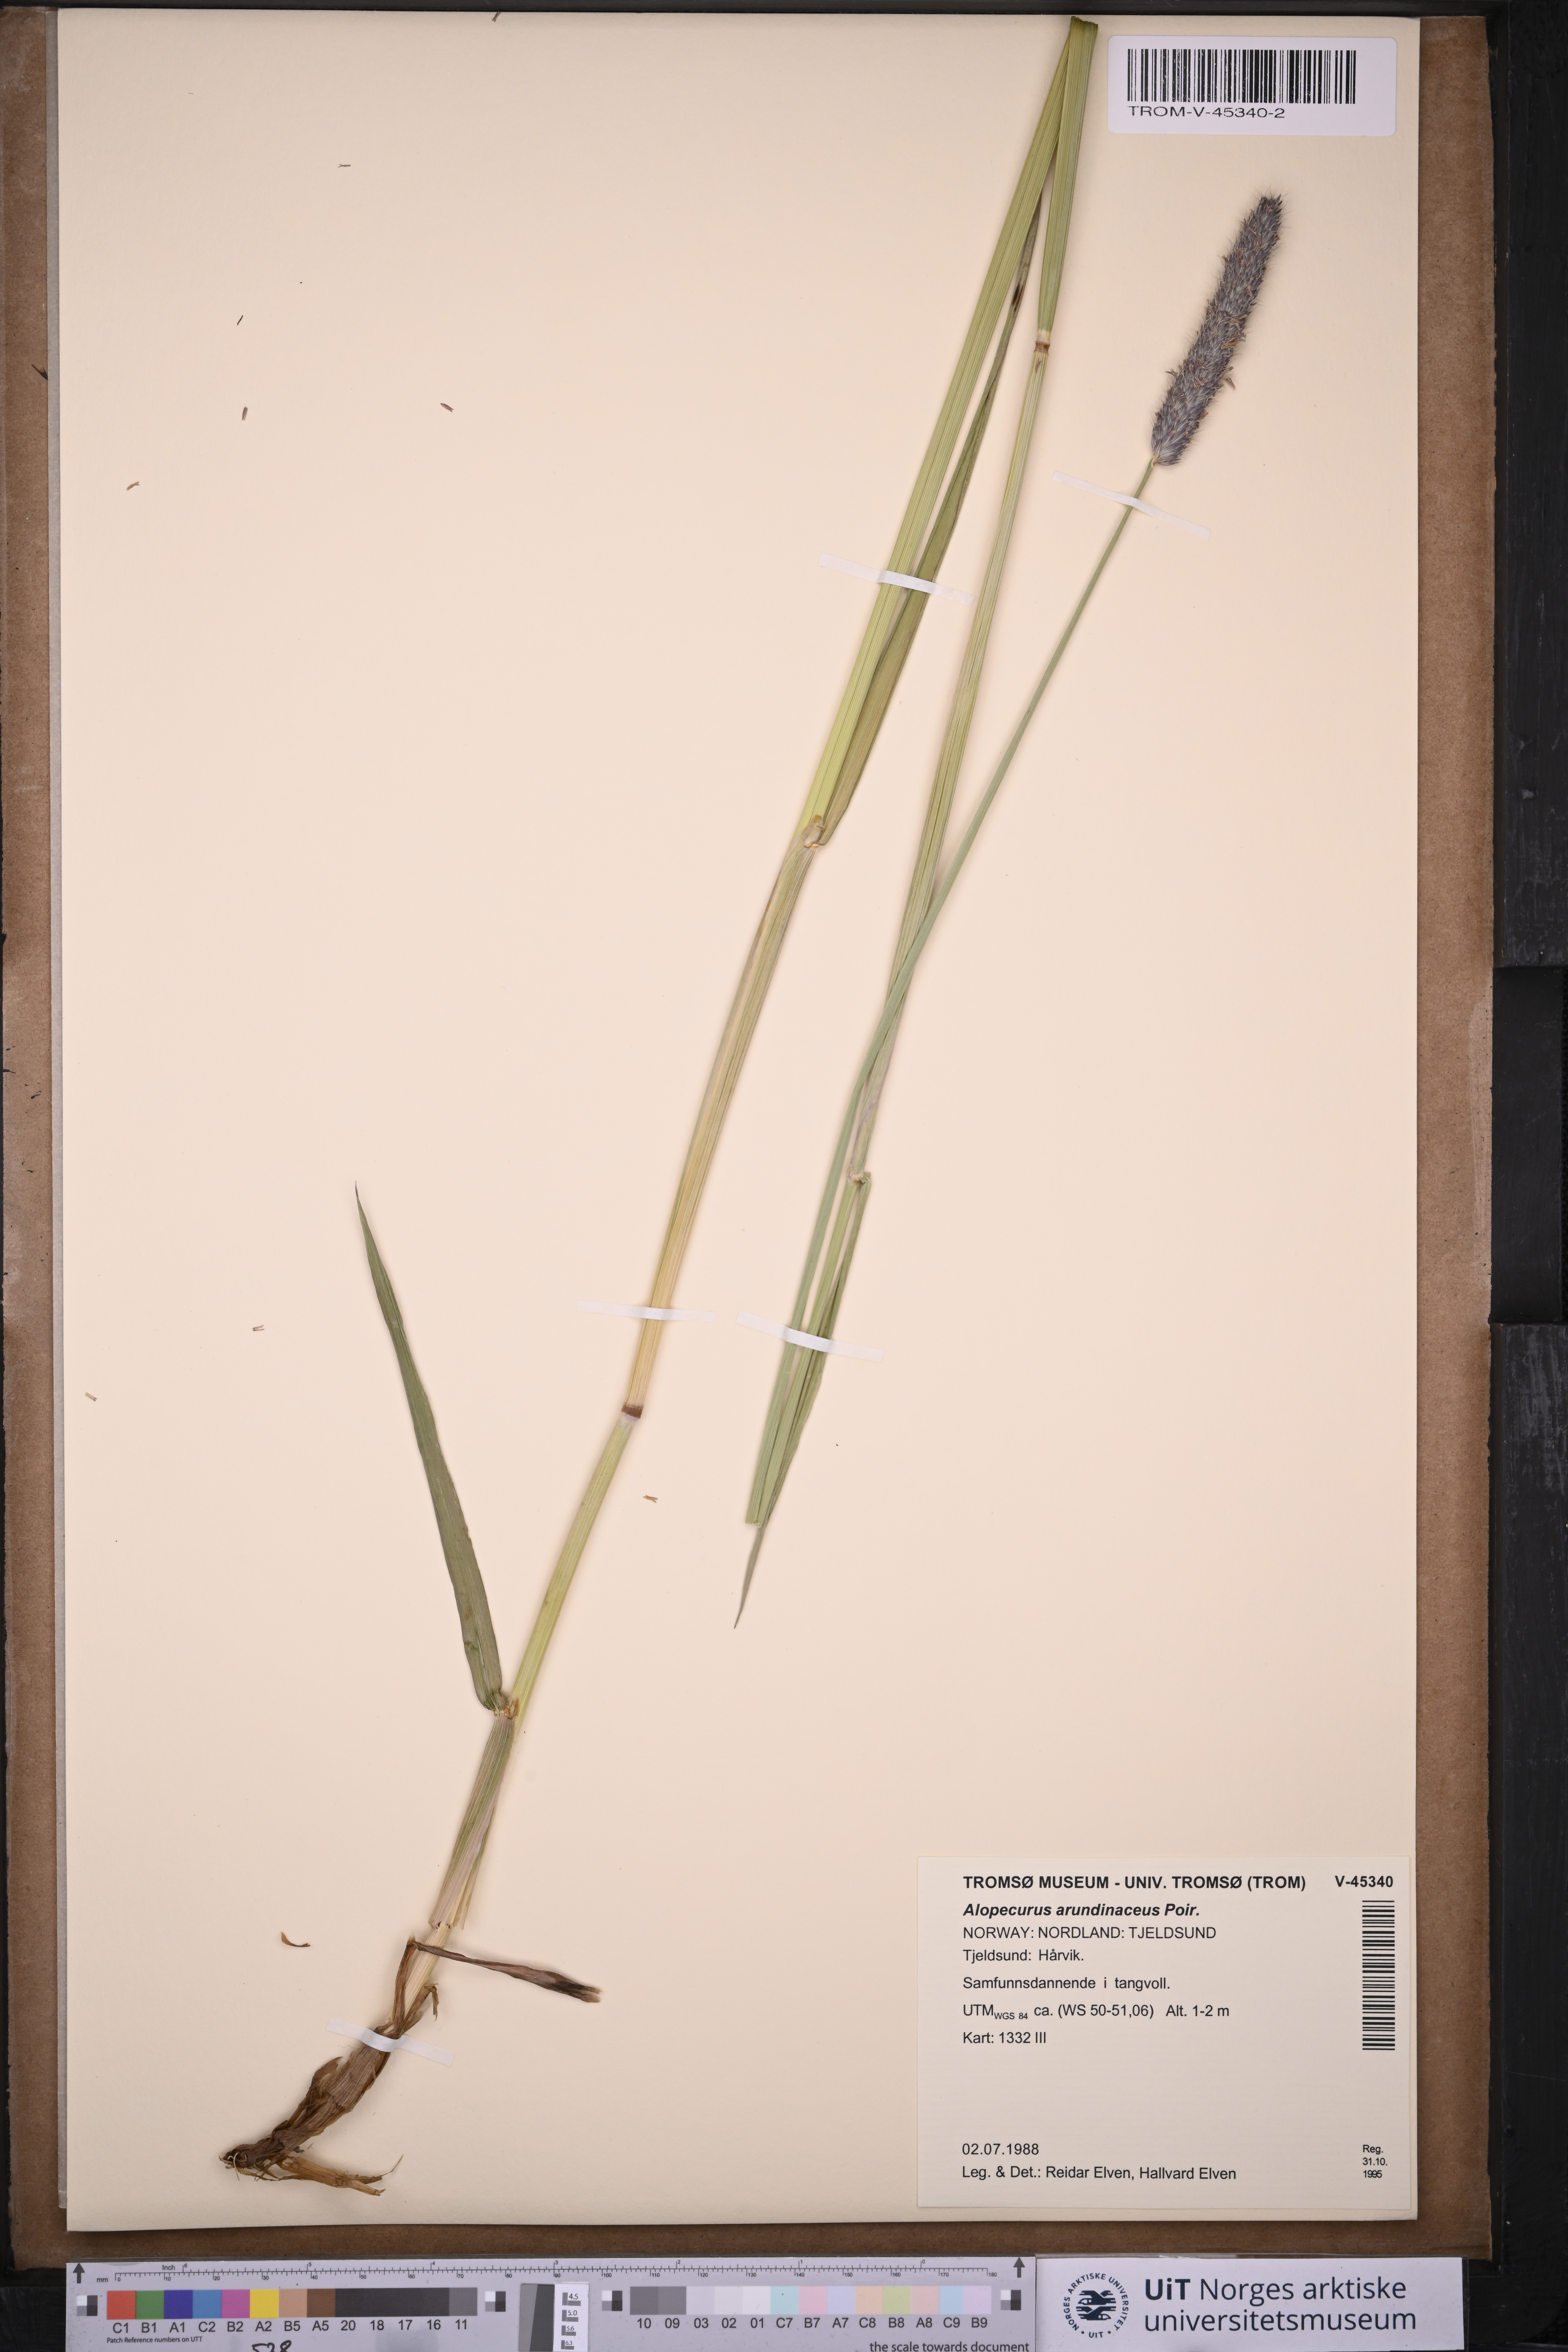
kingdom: Plantae
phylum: Tracheophyta
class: Liliopsida
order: Poales
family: Poaceae
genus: Alopecurus
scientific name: Alopecurus arundinaceus
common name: Creeping meadow foxtail
